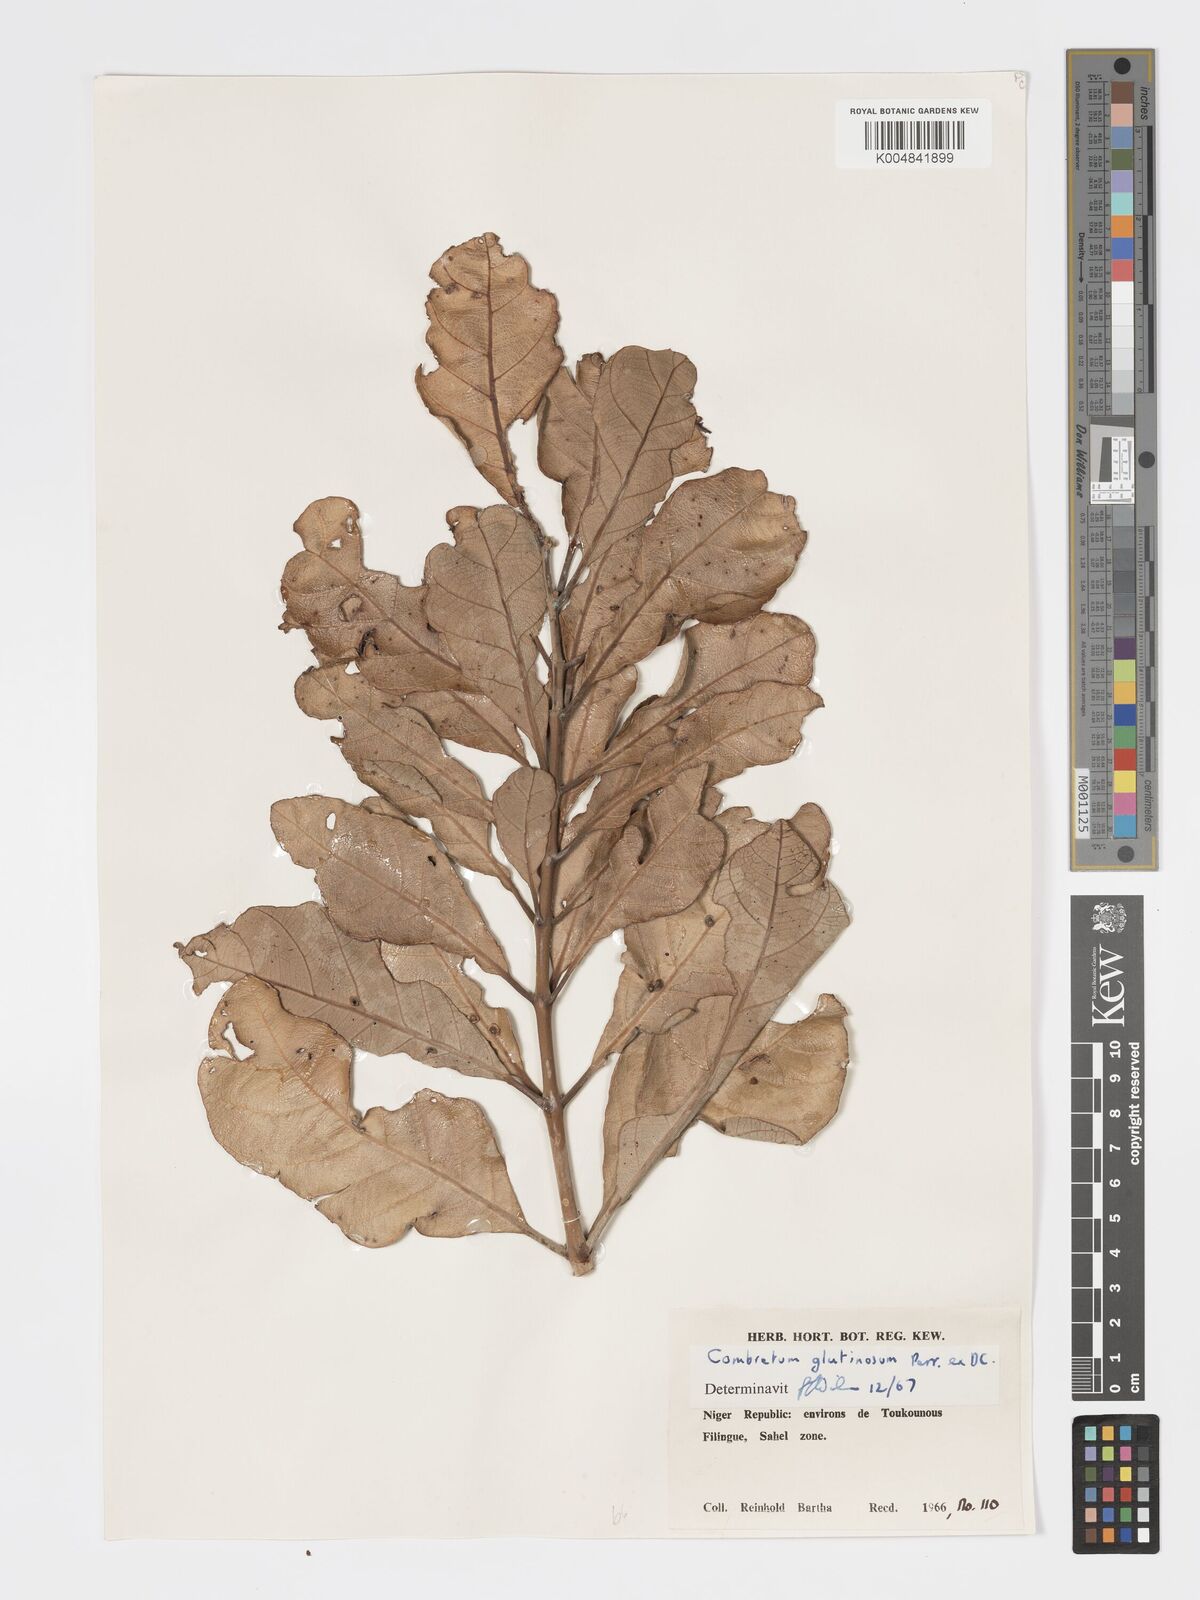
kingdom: Plantae
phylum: Tracheophyta
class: Magnoliopsida
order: Myrtales
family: Combretaceae
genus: Combretum
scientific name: Combretum
